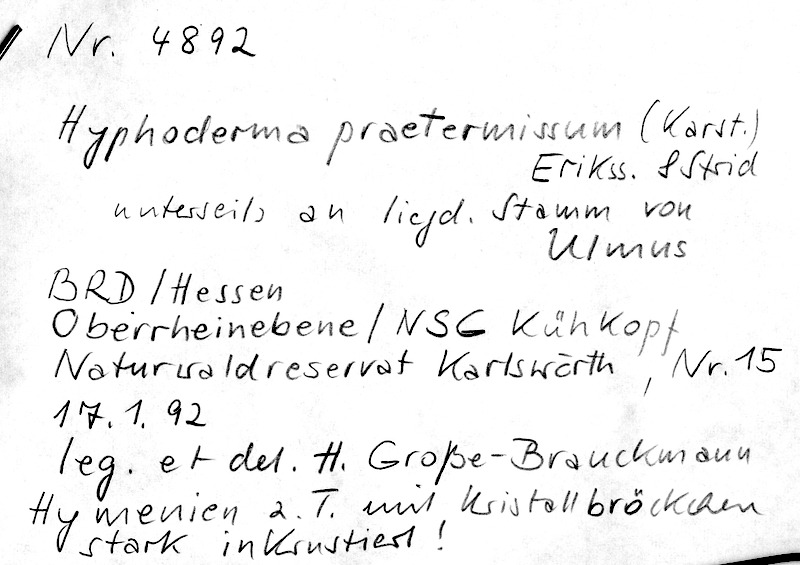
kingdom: Fungi
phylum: Basidiomycota
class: Agaricomycetes
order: Hymenochaetales
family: Rickenellaceae
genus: Peniophorella
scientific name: Peniophorella praetermissa
